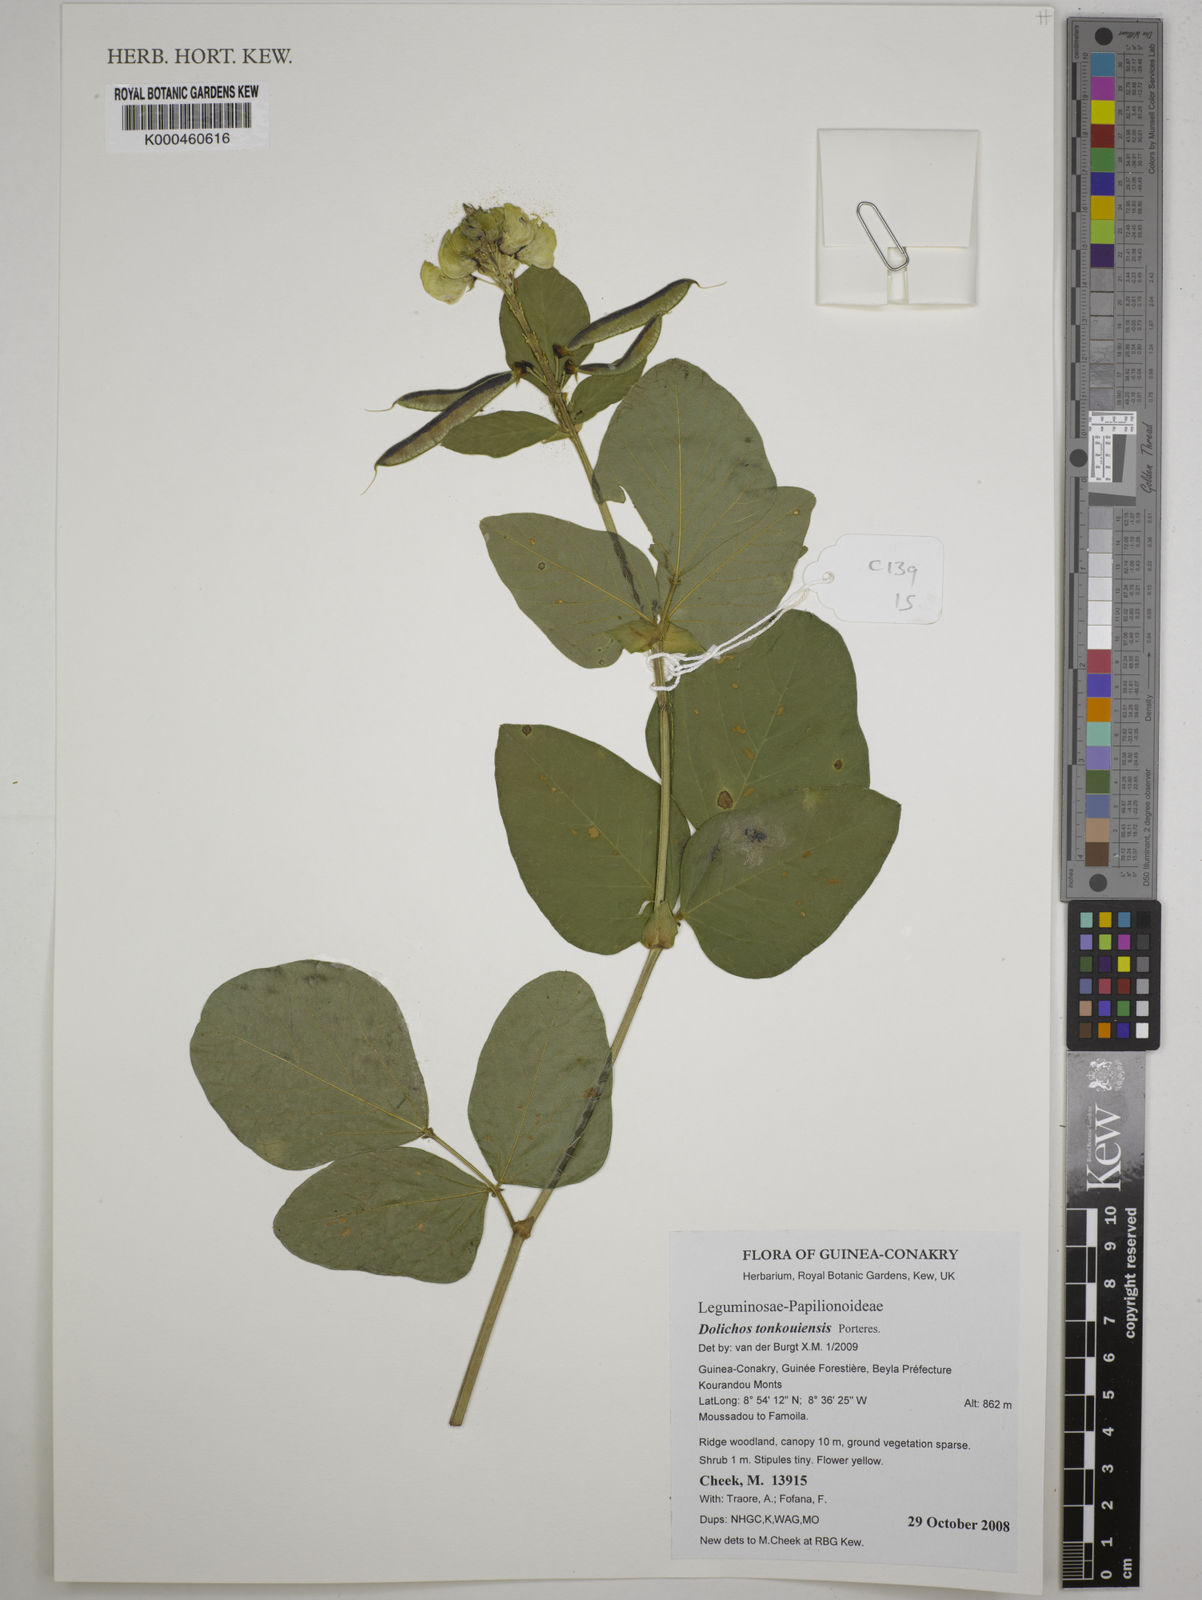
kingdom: Plantae
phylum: Tracheophyta
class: Magnoliopsida
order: Fabales
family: Fabaceae
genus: Dolichos
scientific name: Dolichos tonkouiensis
